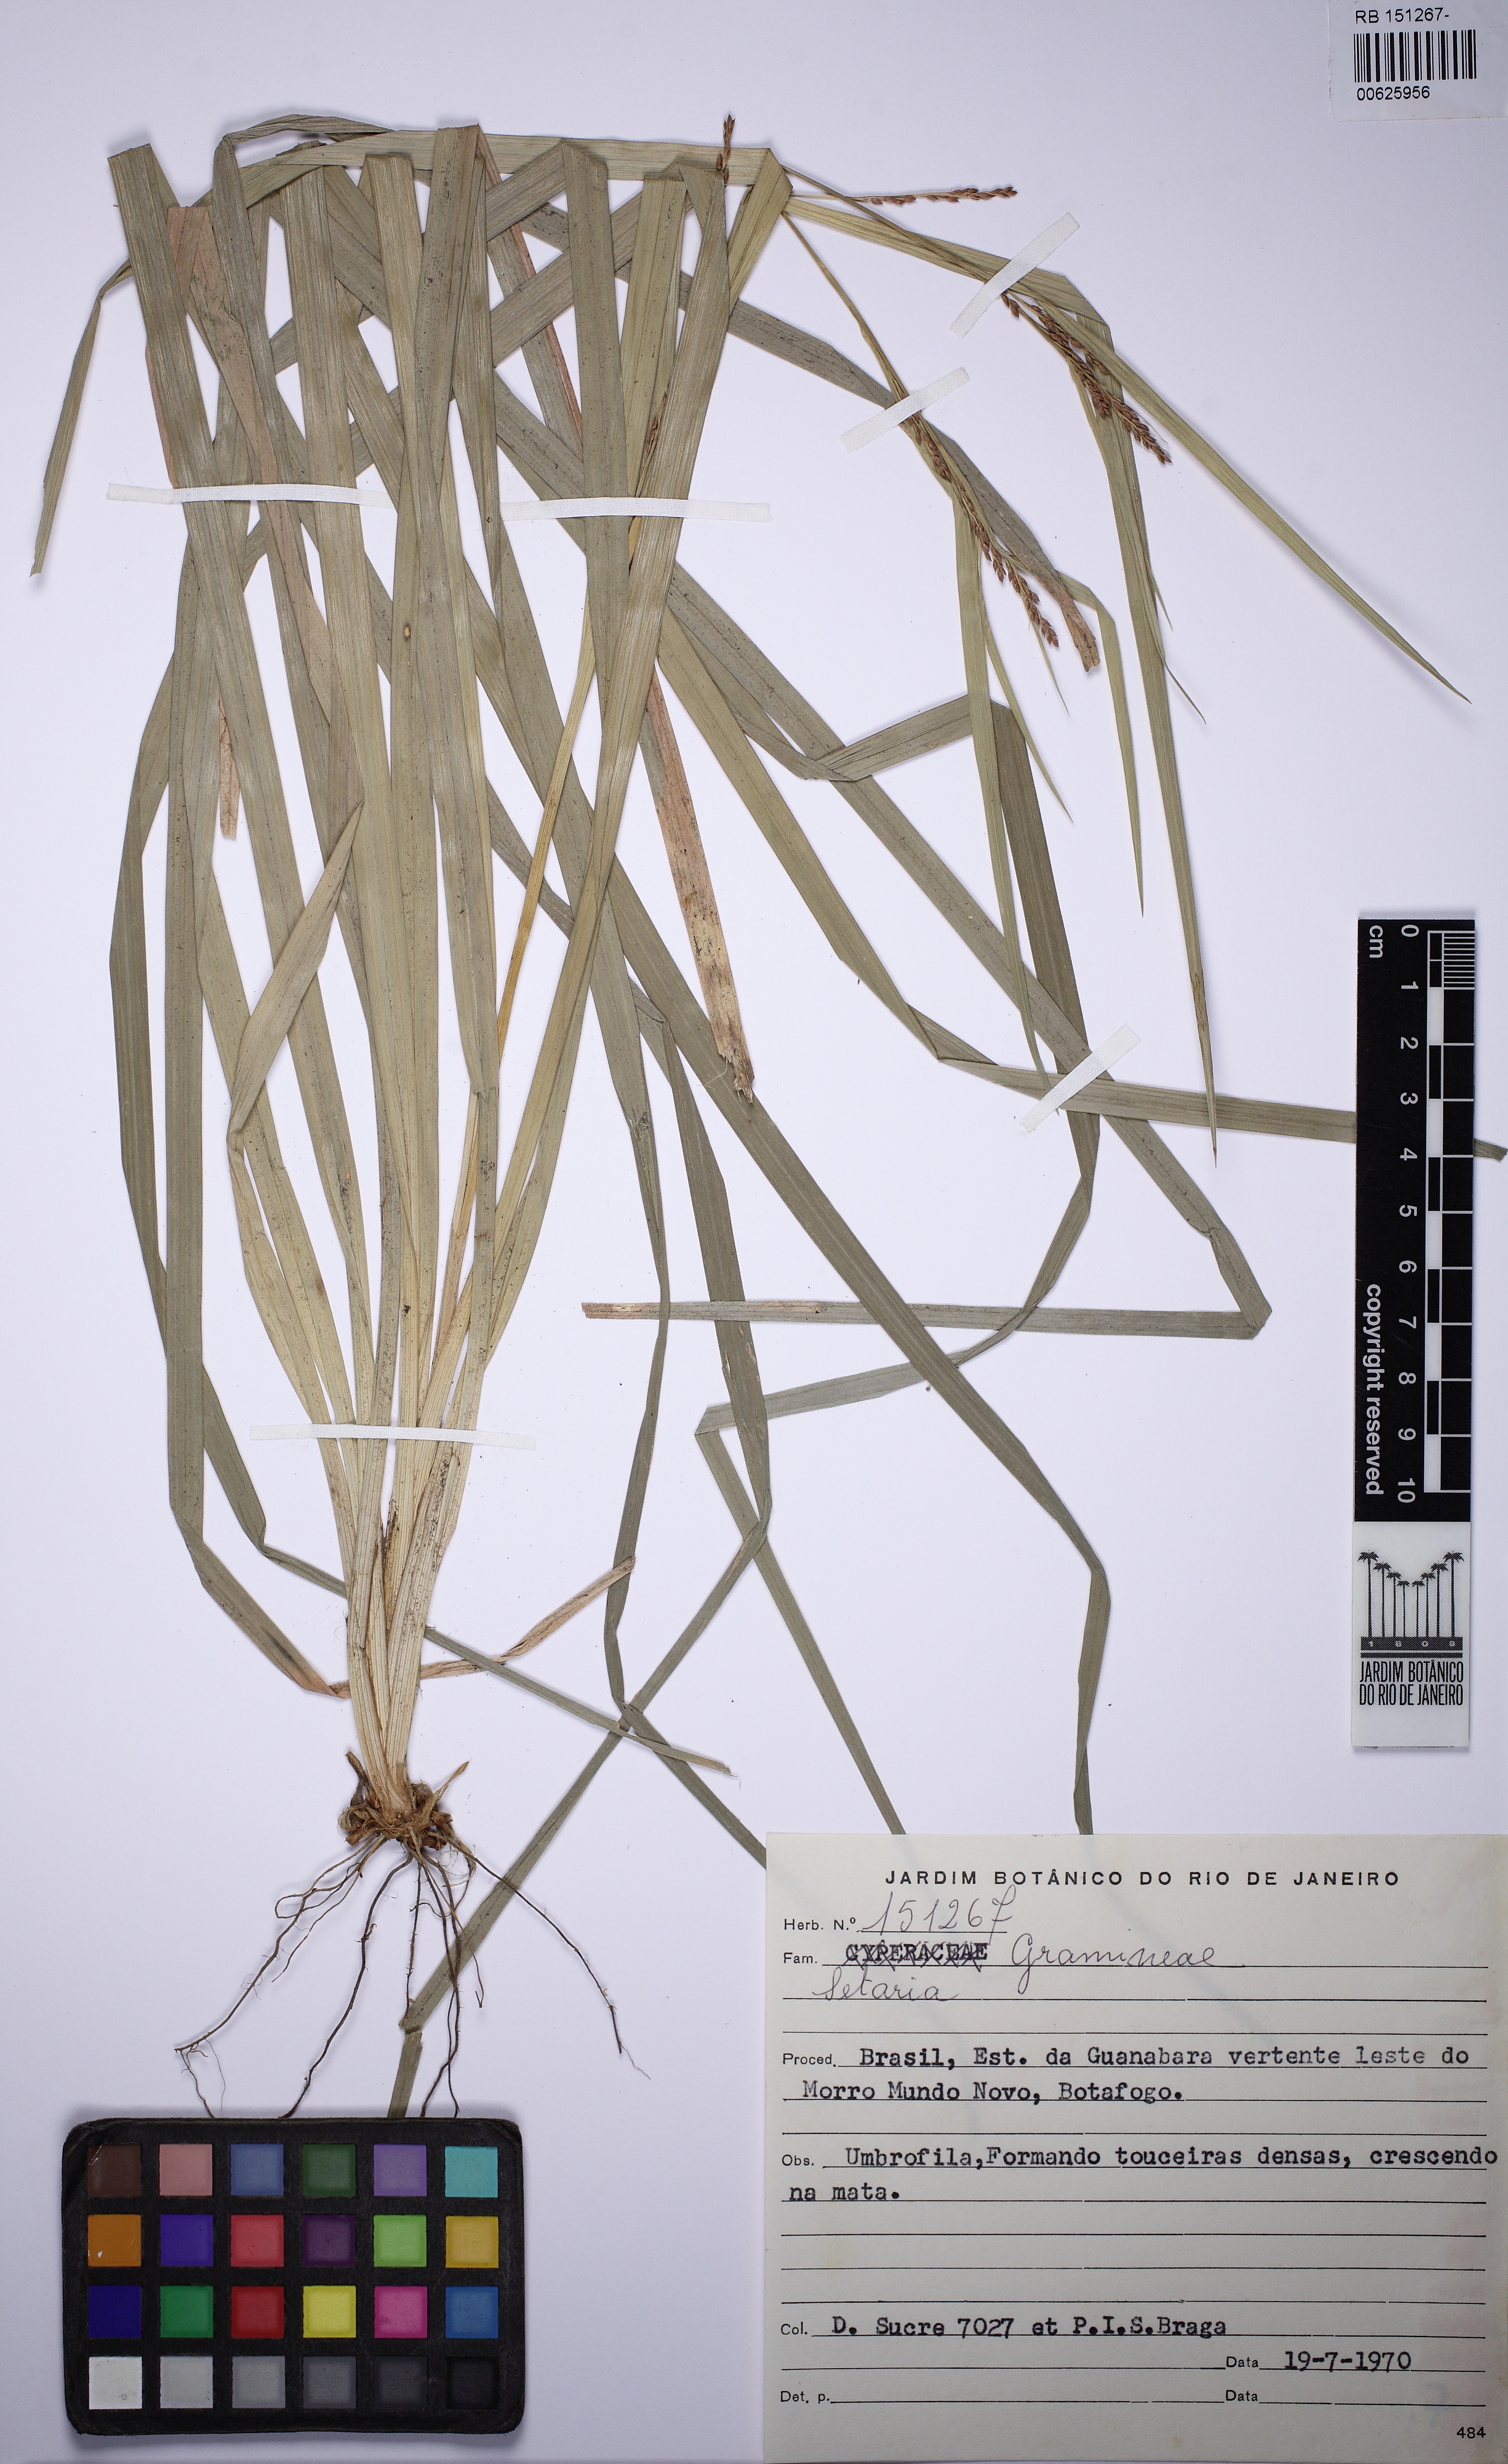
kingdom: Plantae
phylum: Tracheophyta
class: Liliopsida
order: Poales
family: Poaceae
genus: Setaria
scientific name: Setaria
